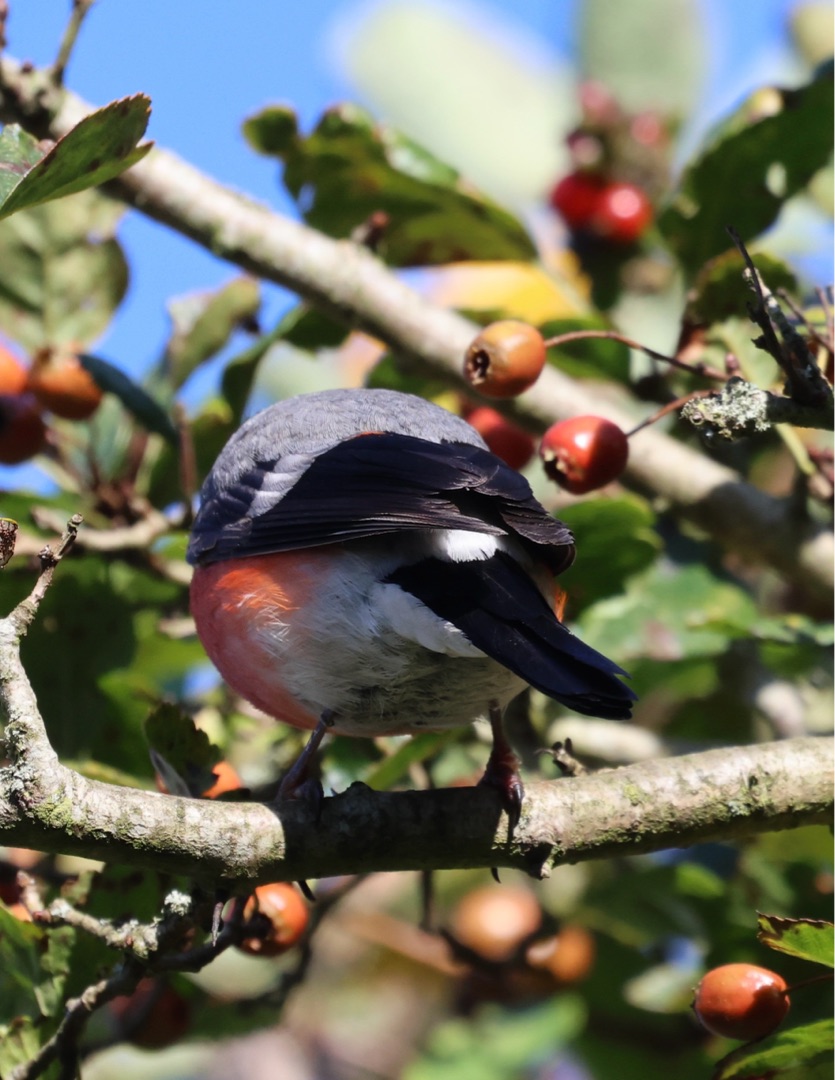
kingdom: Animalia
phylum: Chordata
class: Aves
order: Passeriformes
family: Fringillidae
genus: Pyrrhula
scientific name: Pyrrhula pyrrhula
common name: Dompap
